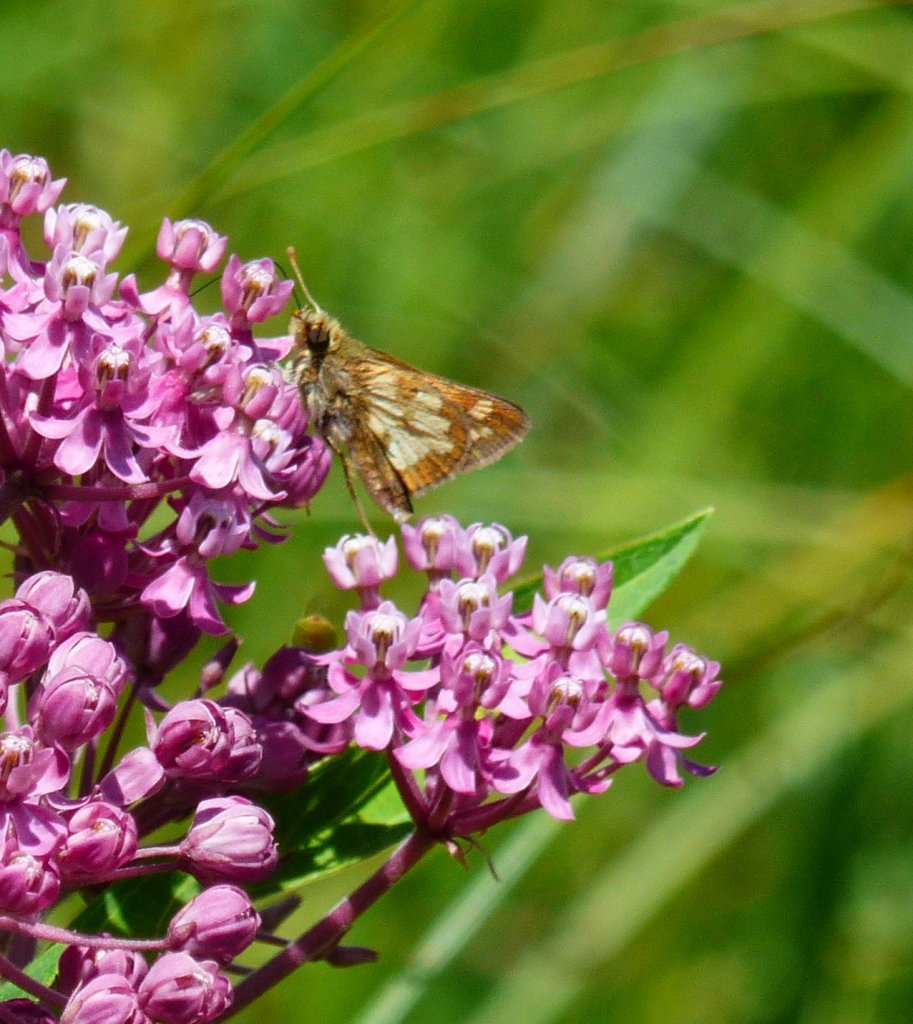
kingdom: Animalia
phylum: Arthropoda
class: Insecta
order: Lepidoptera
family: Hesperiidae
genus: Polites
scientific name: Polites coras
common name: Peck's Skipper
